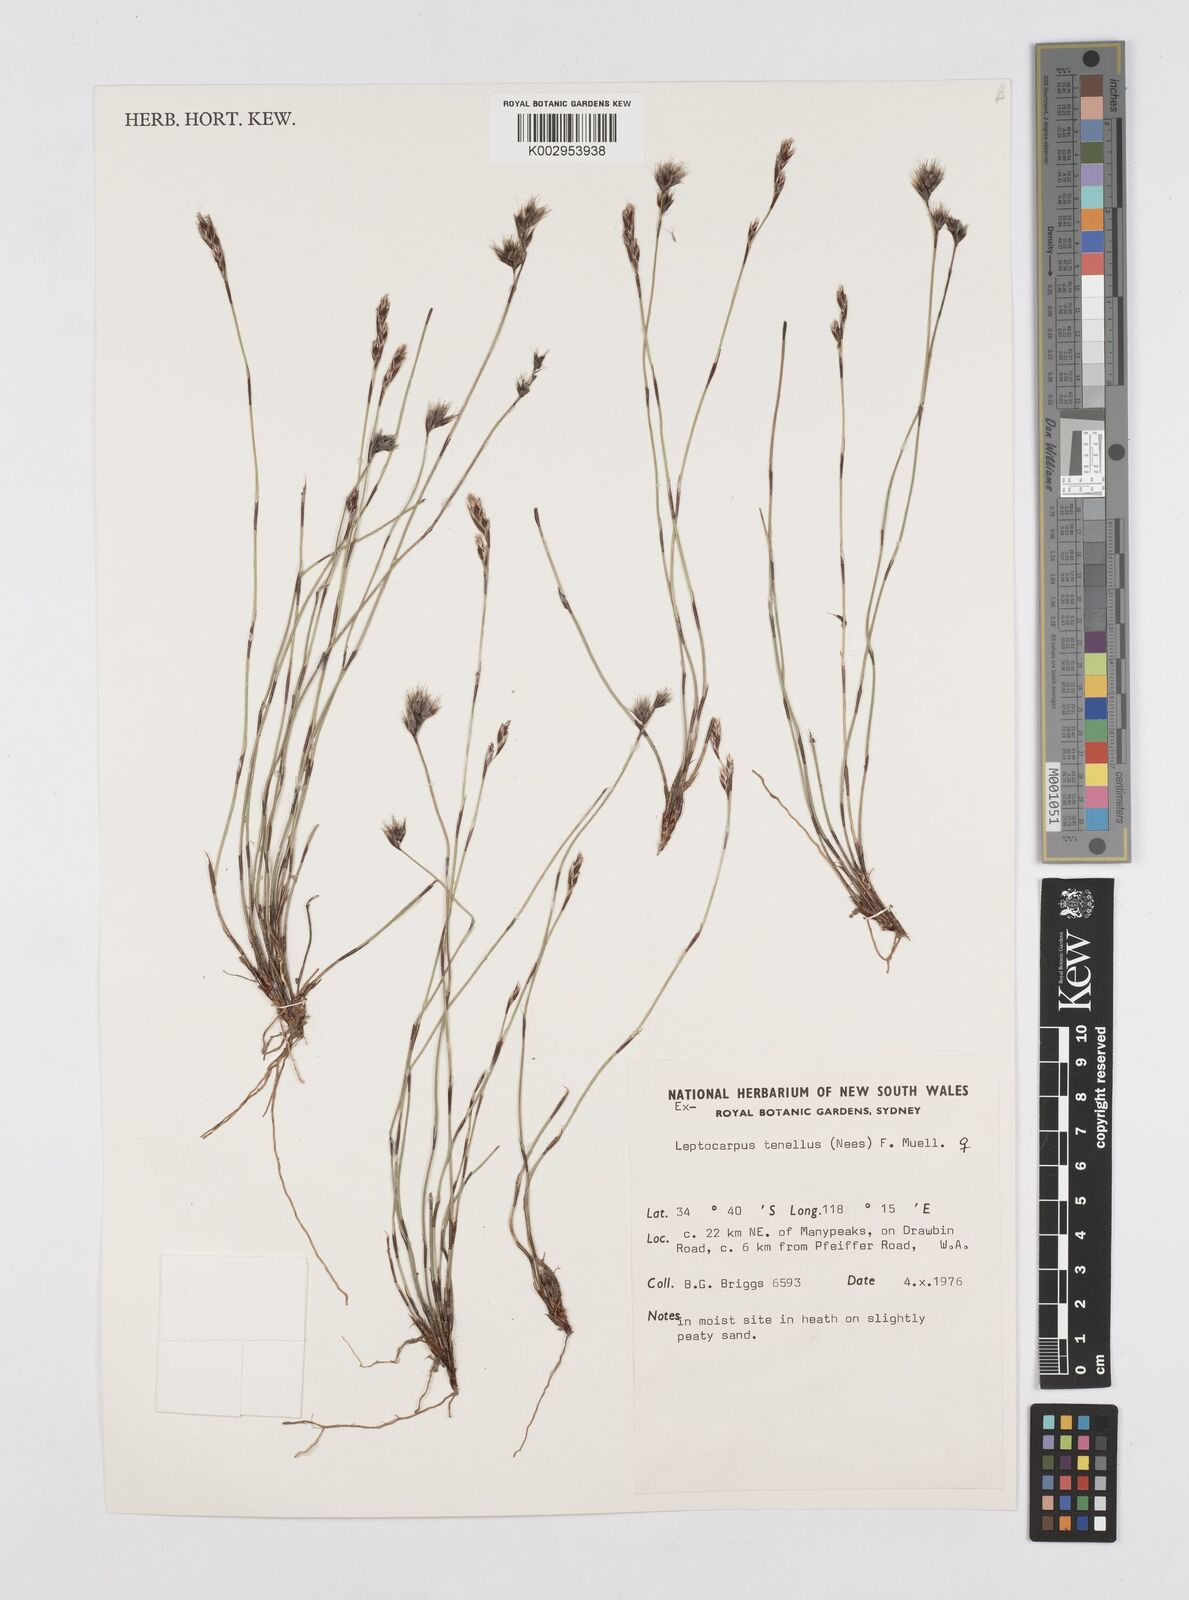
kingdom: Plantae
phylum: Tracheophyta
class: Liliopsida
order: Poales
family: Restionaceae
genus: Chaetanthus
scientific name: Chaetanthus tenellus
